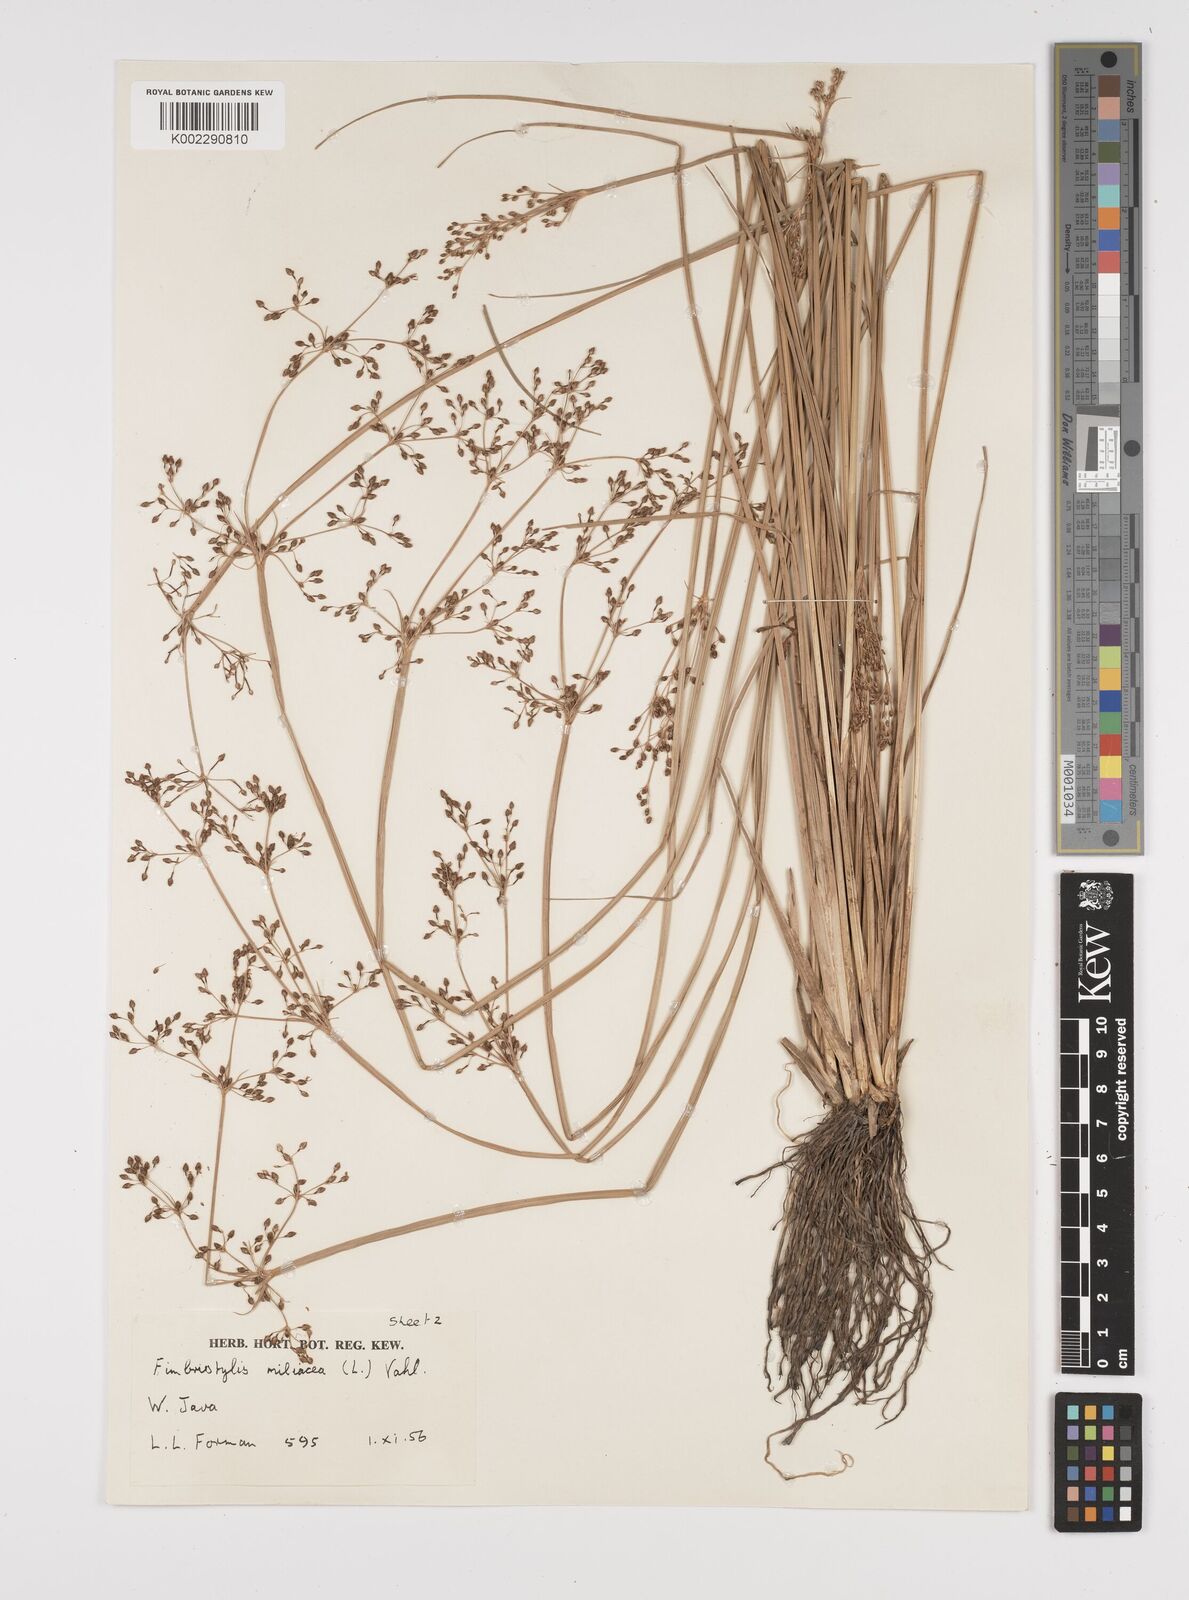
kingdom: Plantae
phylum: Tracheophyta
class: Liliopsida
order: Poales
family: Cyperaceae
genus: Fimbristylis
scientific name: Fimbristylis littoralis
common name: Fimbry
